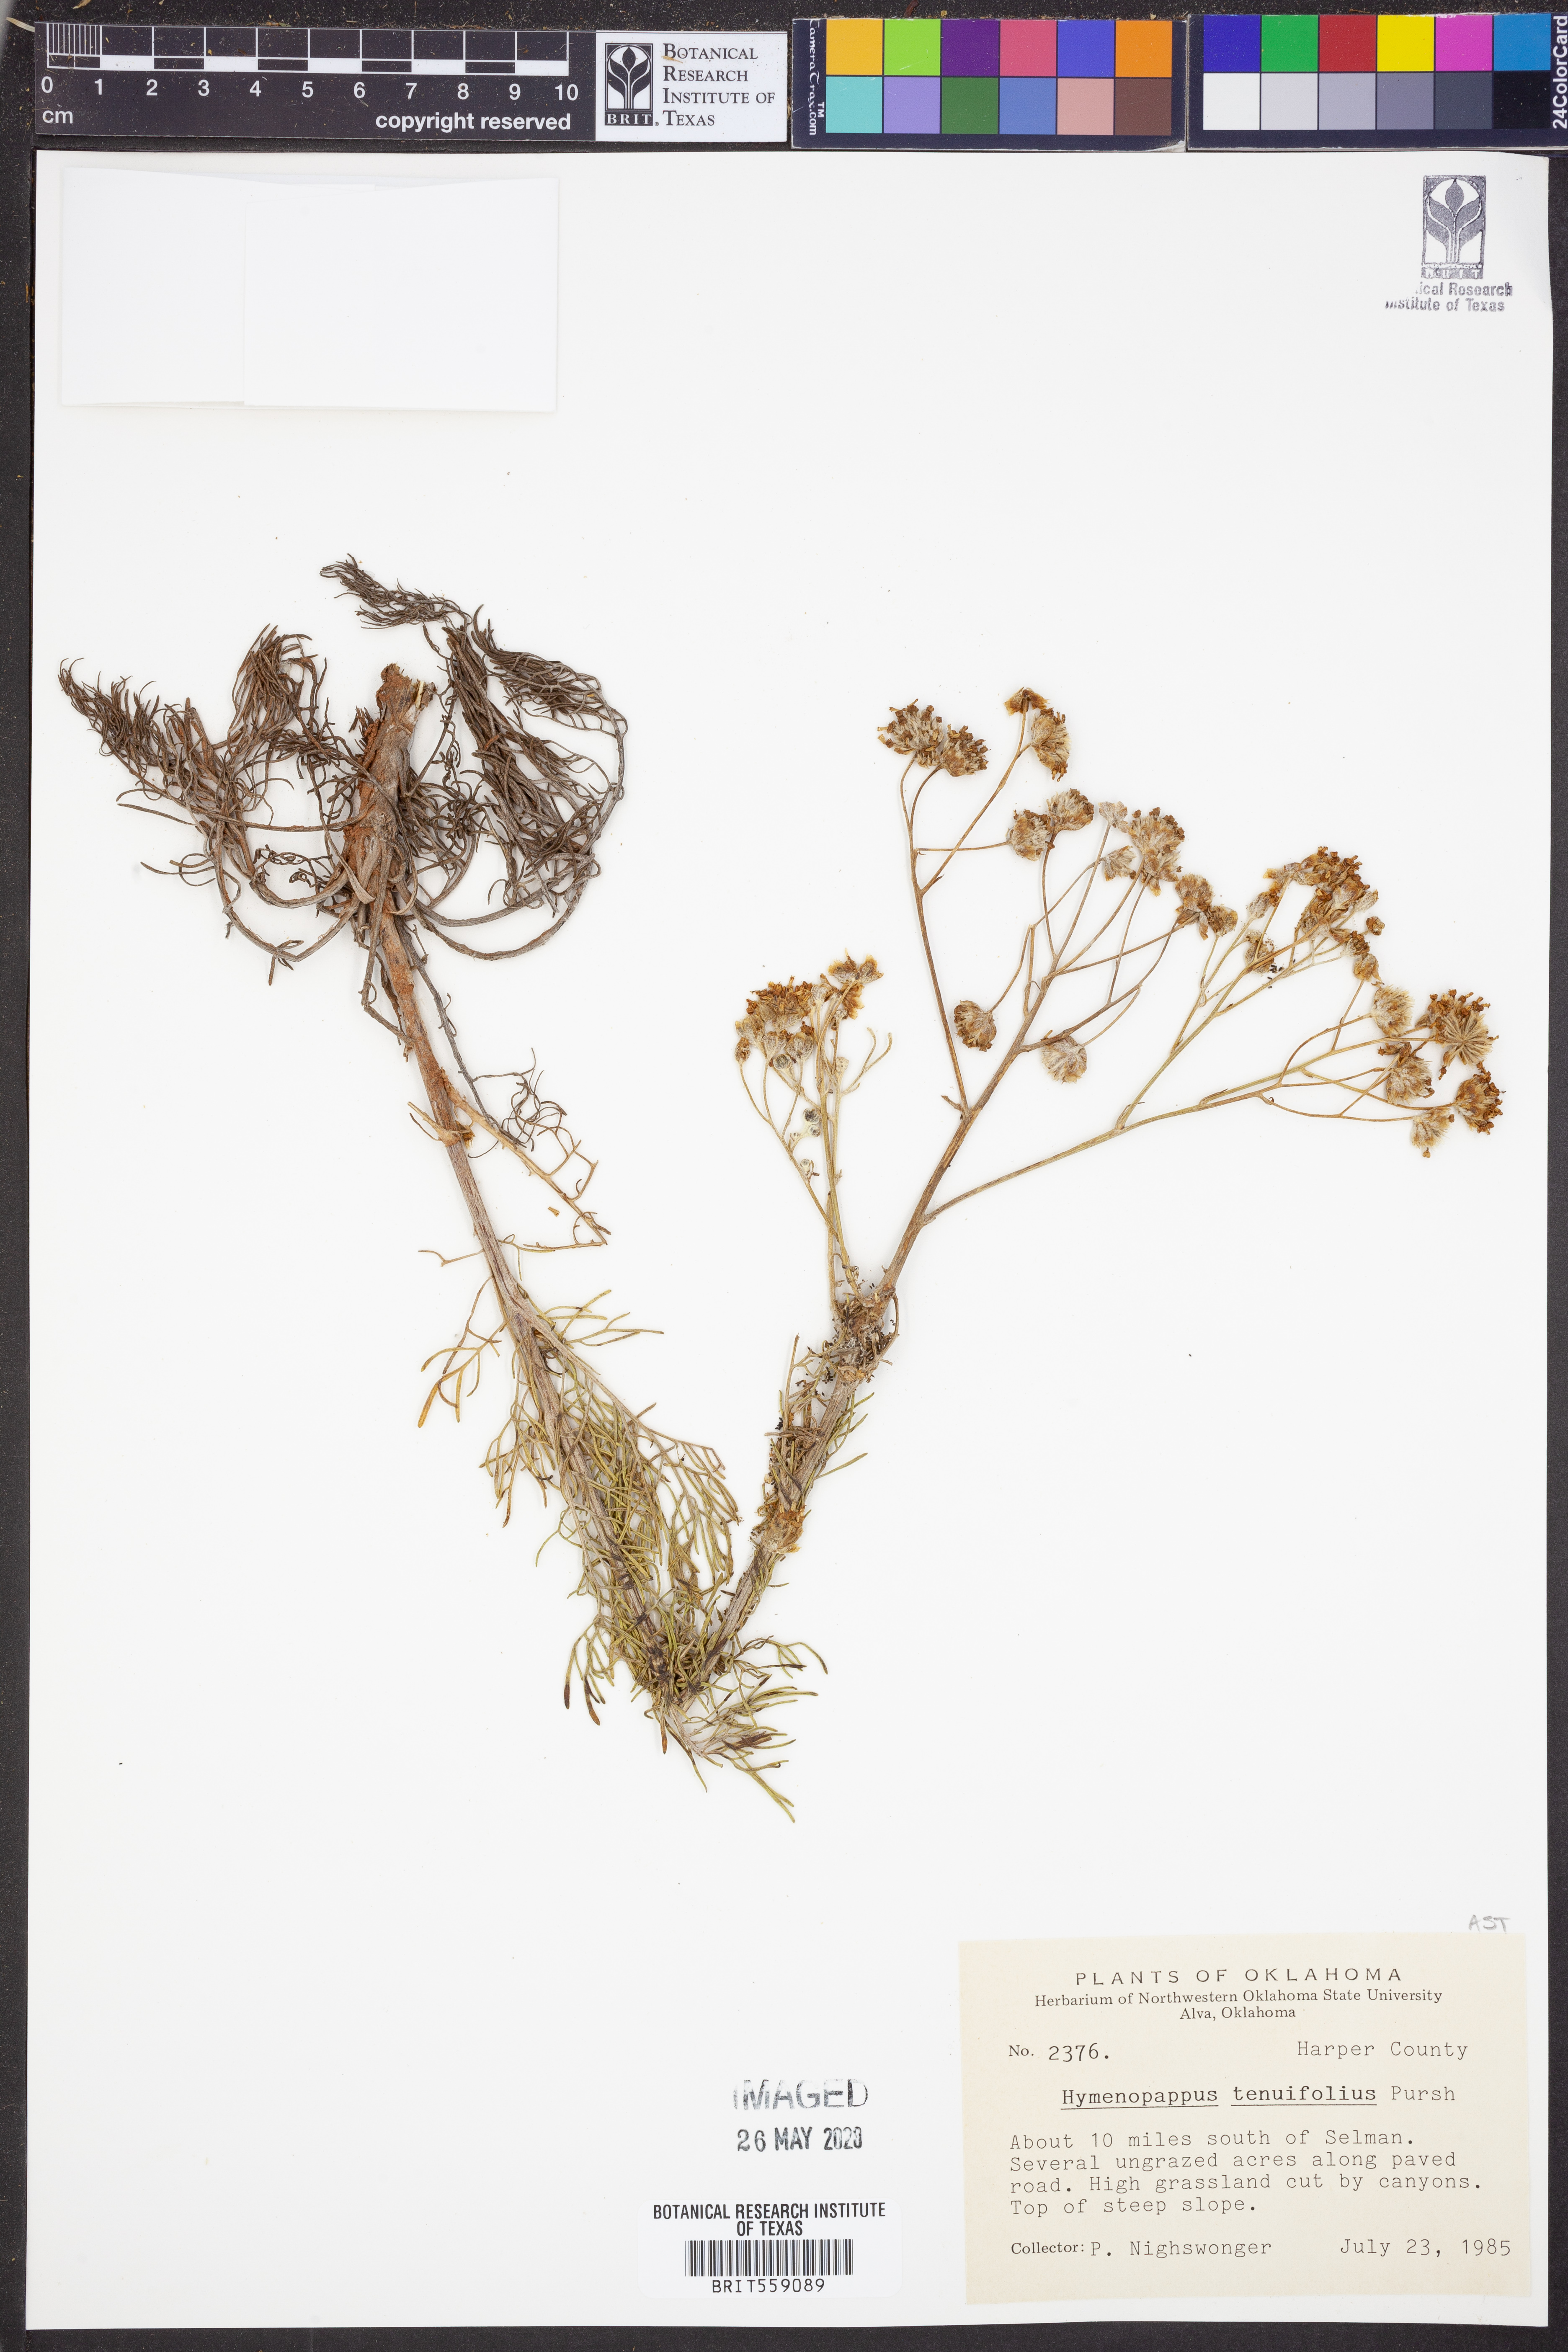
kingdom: Plantae
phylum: Tracheophyta
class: Magnoliopsida
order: Asterales
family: Asteraceae
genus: Hymenopappus
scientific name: Hymenopappus tenuifolius
